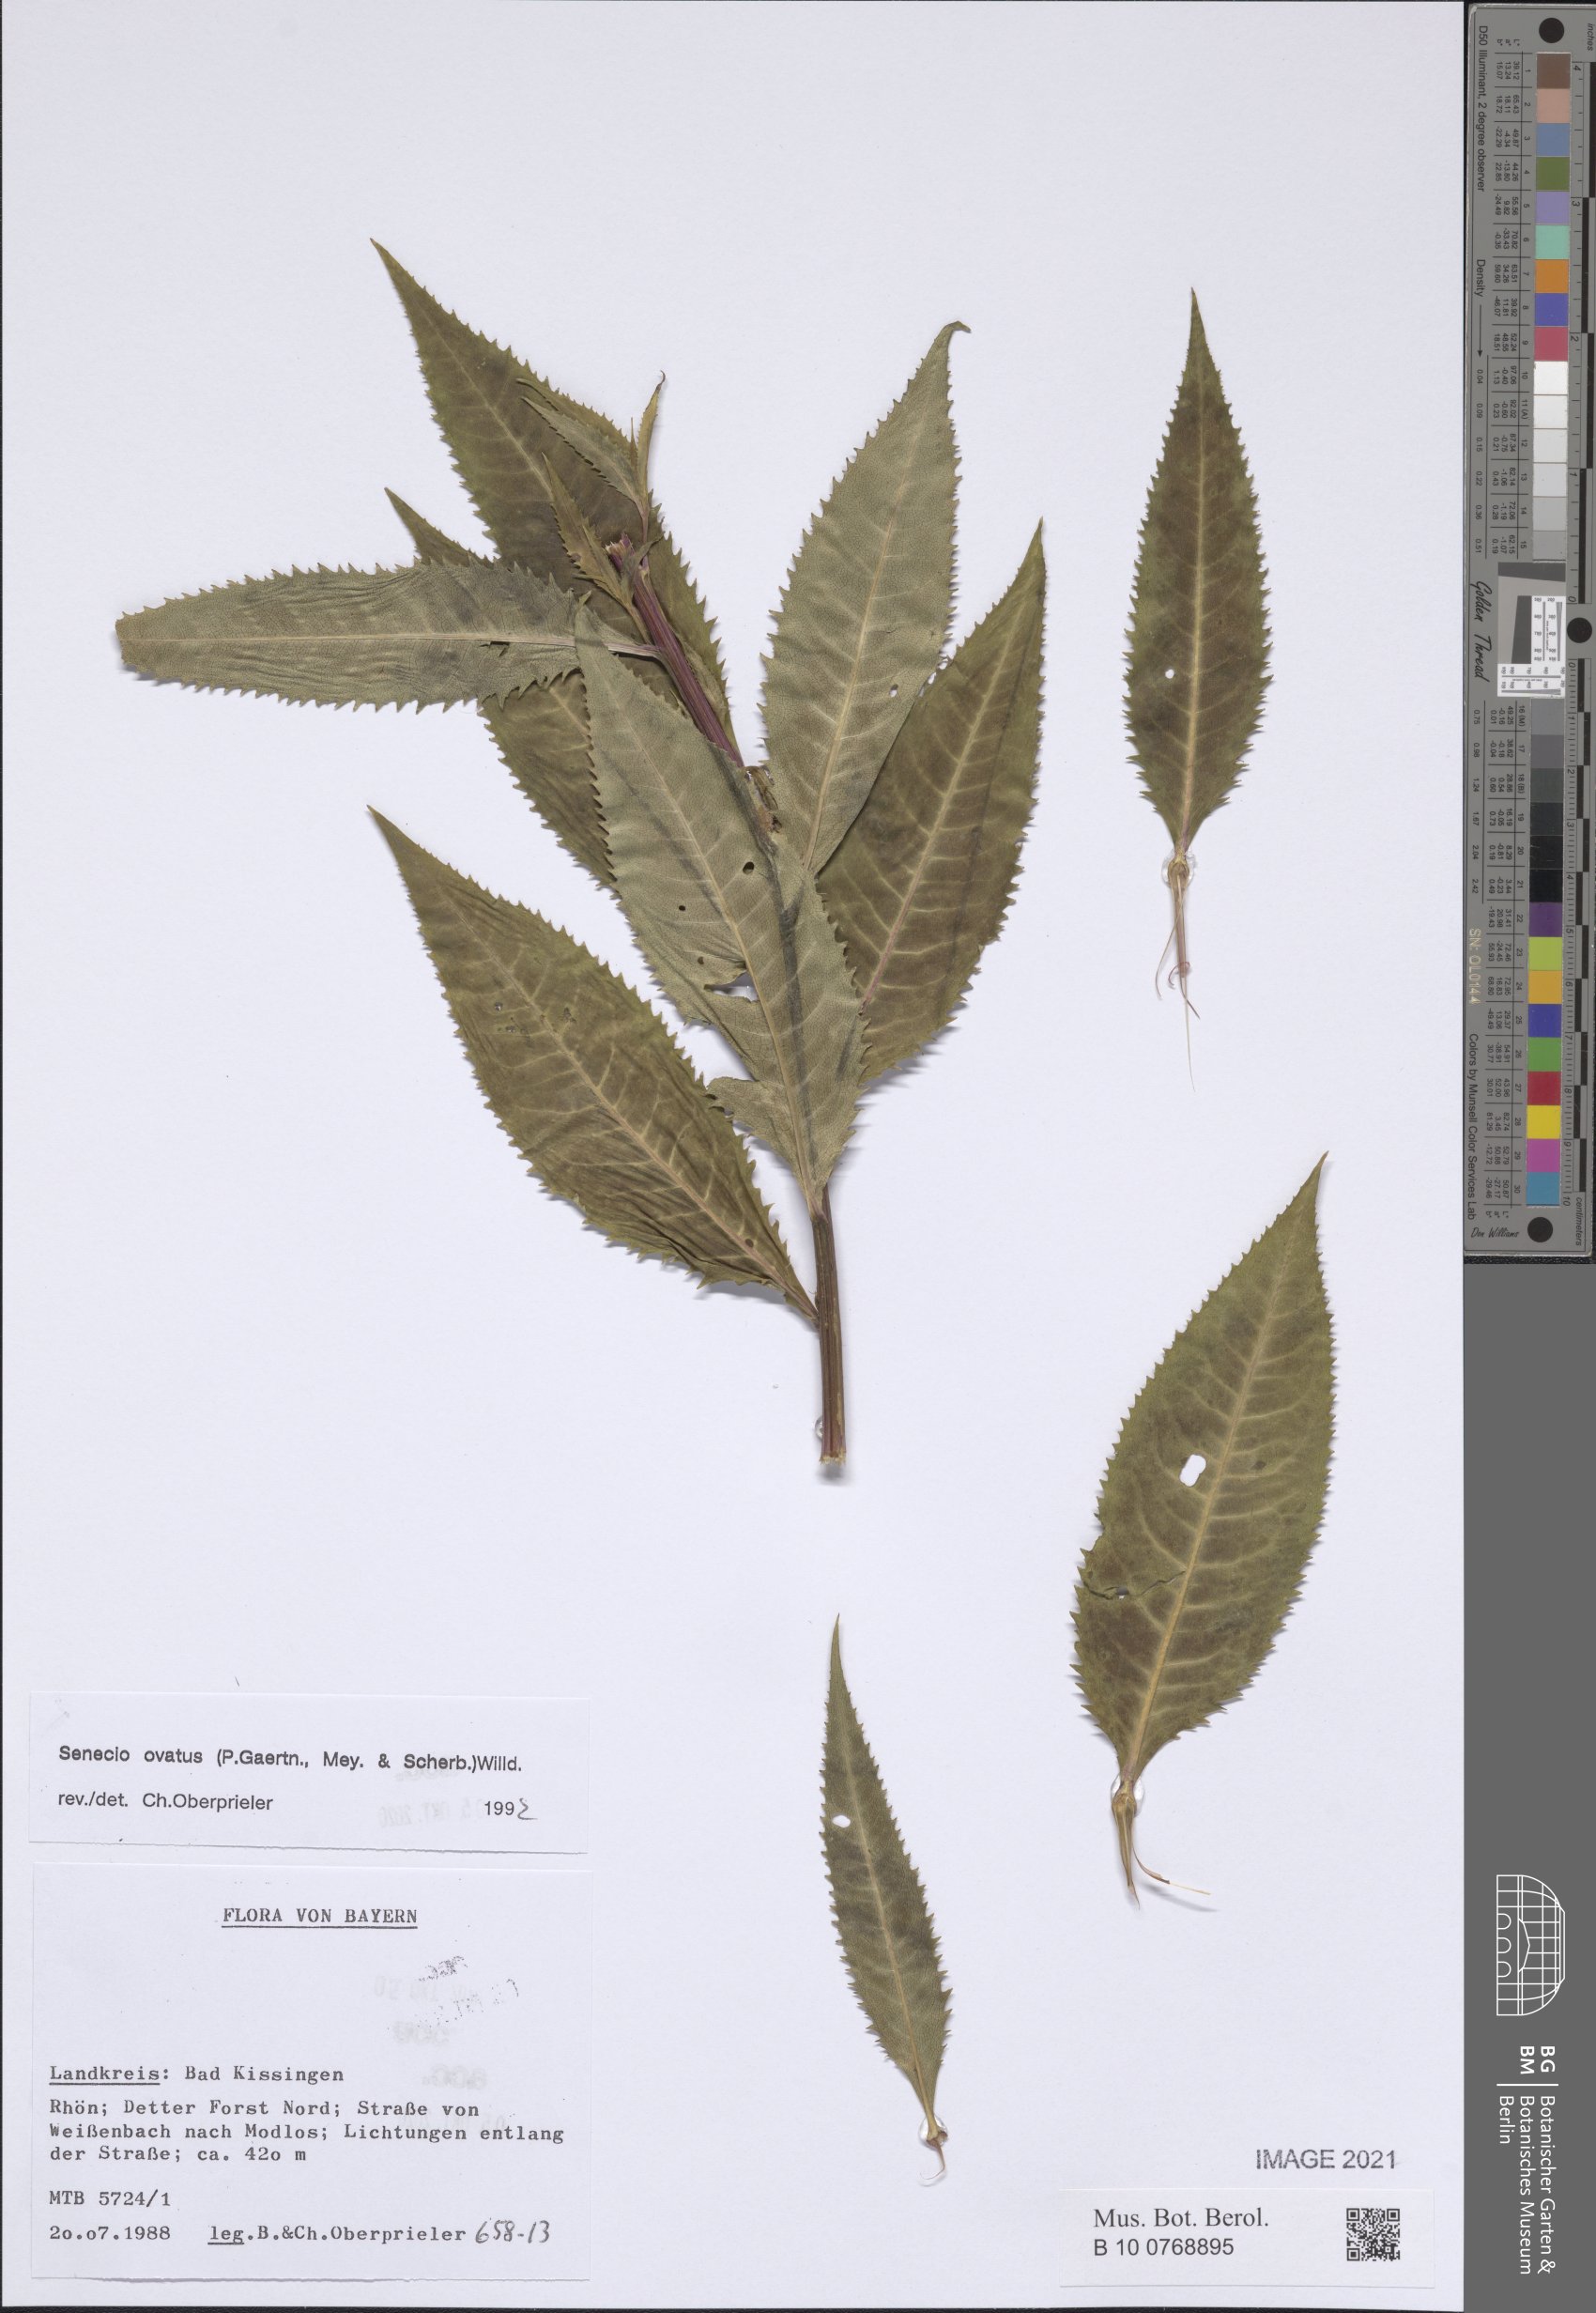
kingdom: Plantae
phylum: Tracheophyta
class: Magnoliopsida
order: Asterales
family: Asteraceae
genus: Senecio
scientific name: Senecio ovatus
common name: Wood ragwort
